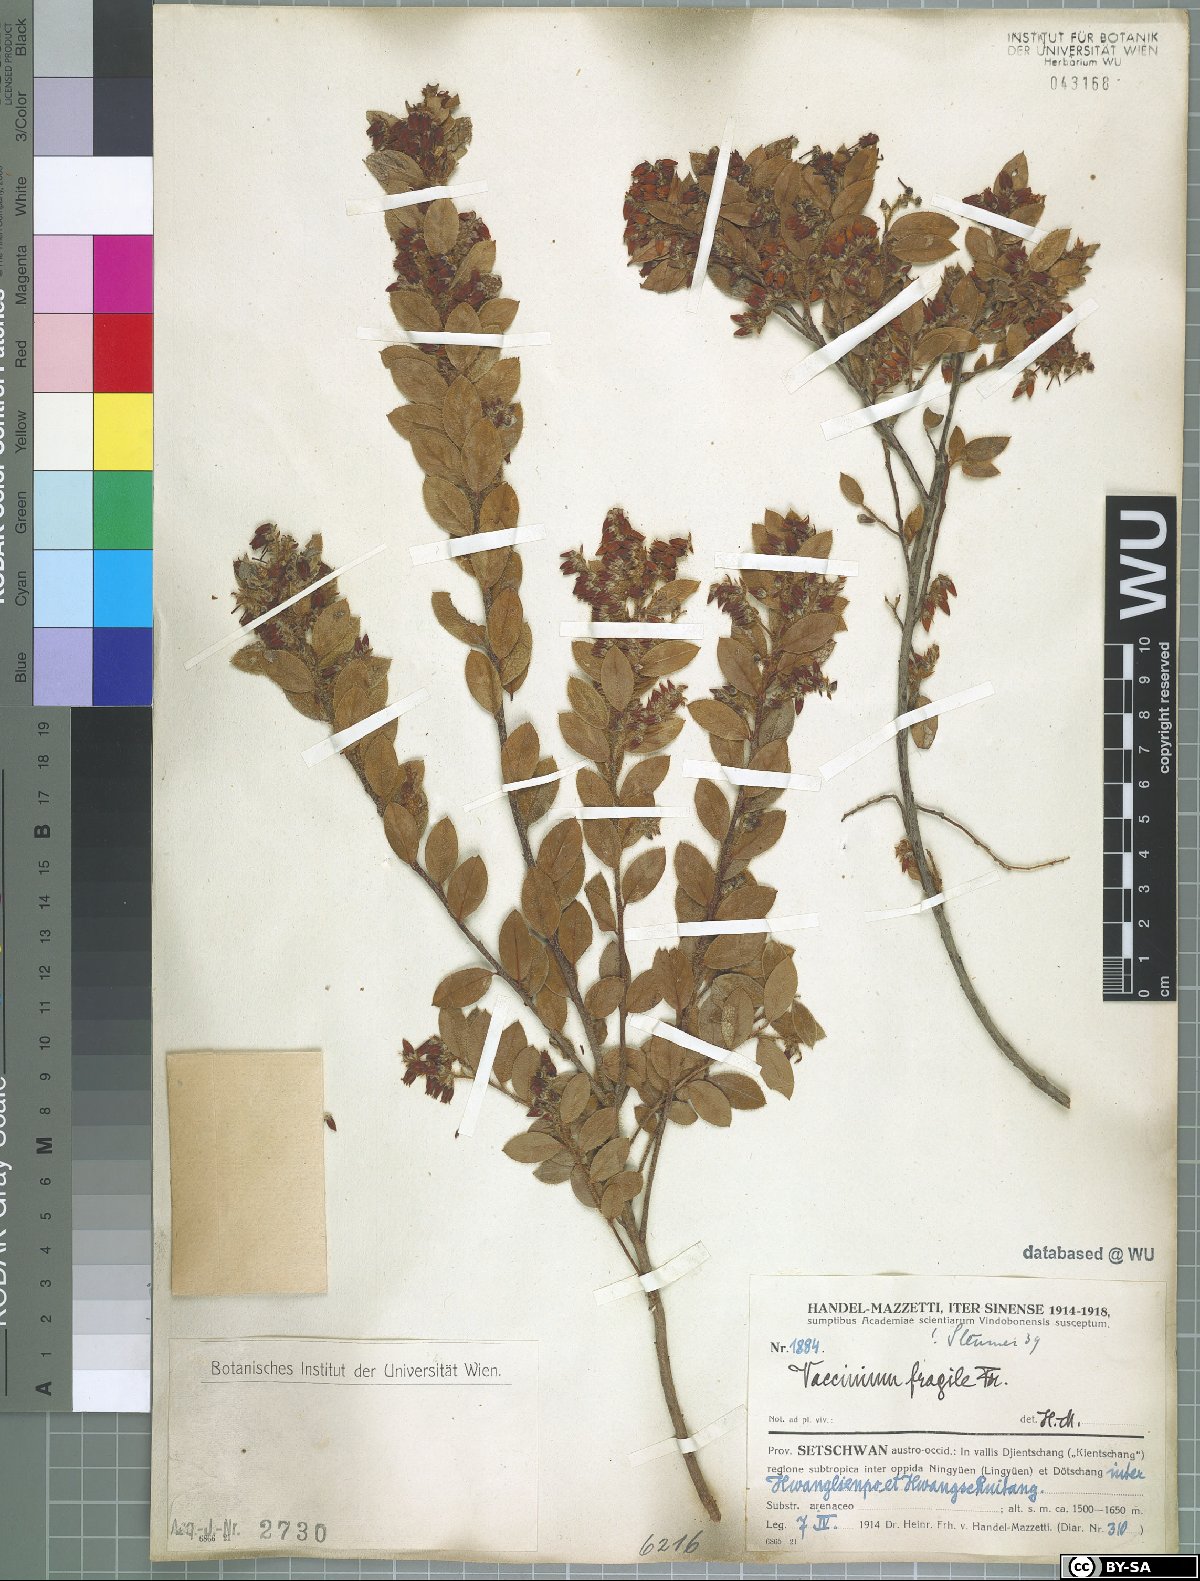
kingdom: Plantae
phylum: Tracheophyta
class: Magnoliopsida
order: Ericales
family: Ericaceae
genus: Vaccinium
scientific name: Vaccinium fragile
